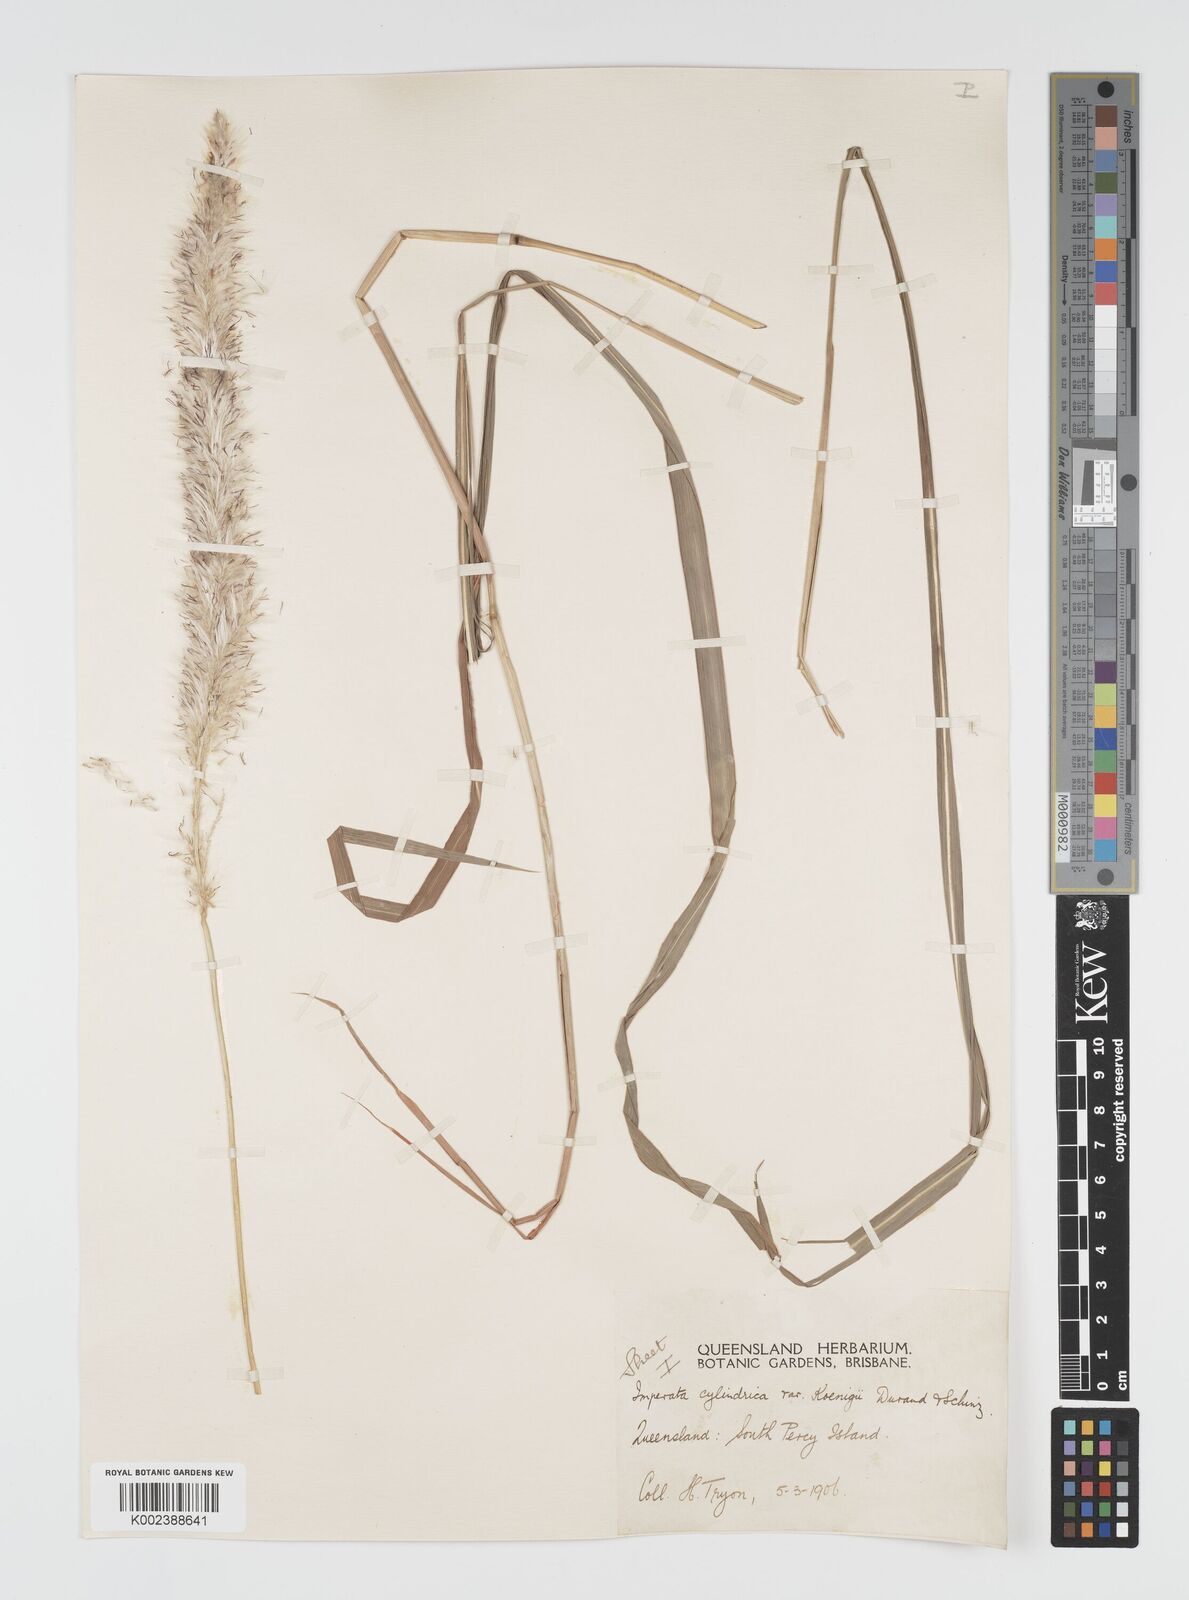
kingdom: Plantae
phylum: Tracheophyta
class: Liliopsida
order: Poales
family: Poaceae
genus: Imperata
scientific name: Imperata cylindrica
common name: Cogongrass
